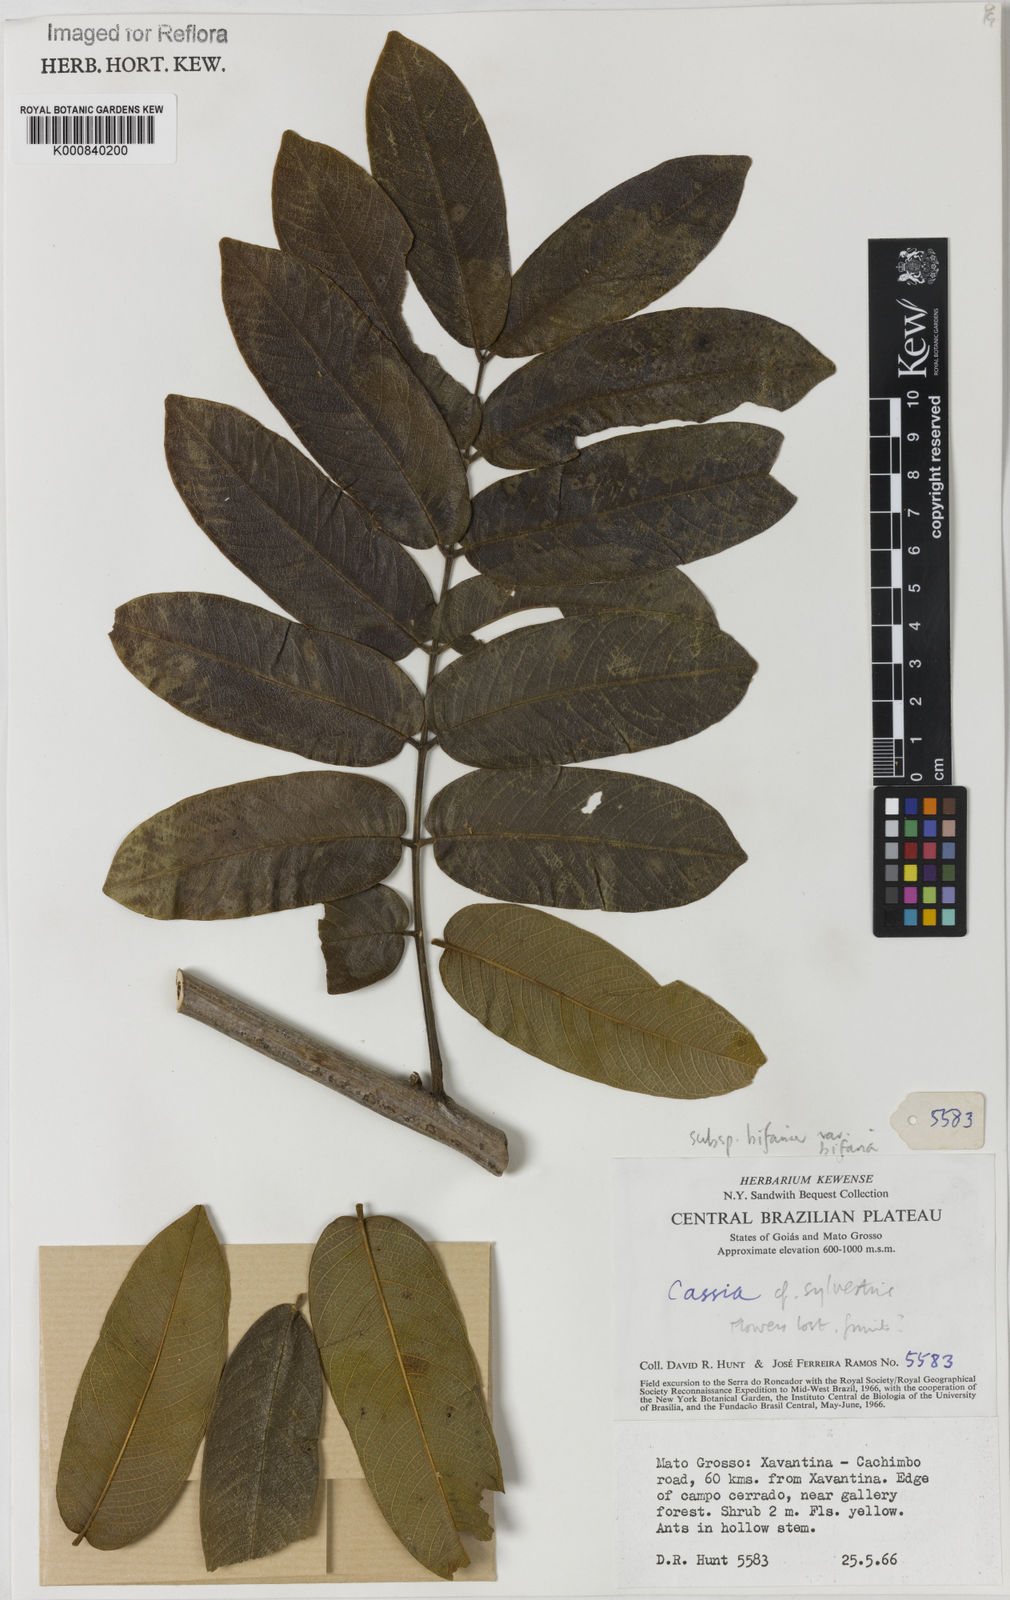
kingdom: Plantae
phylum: Tracheophyta
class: Magnoliopsida
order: Fabales
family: Fabaceae
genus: Senna
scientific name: Senna silvestris
